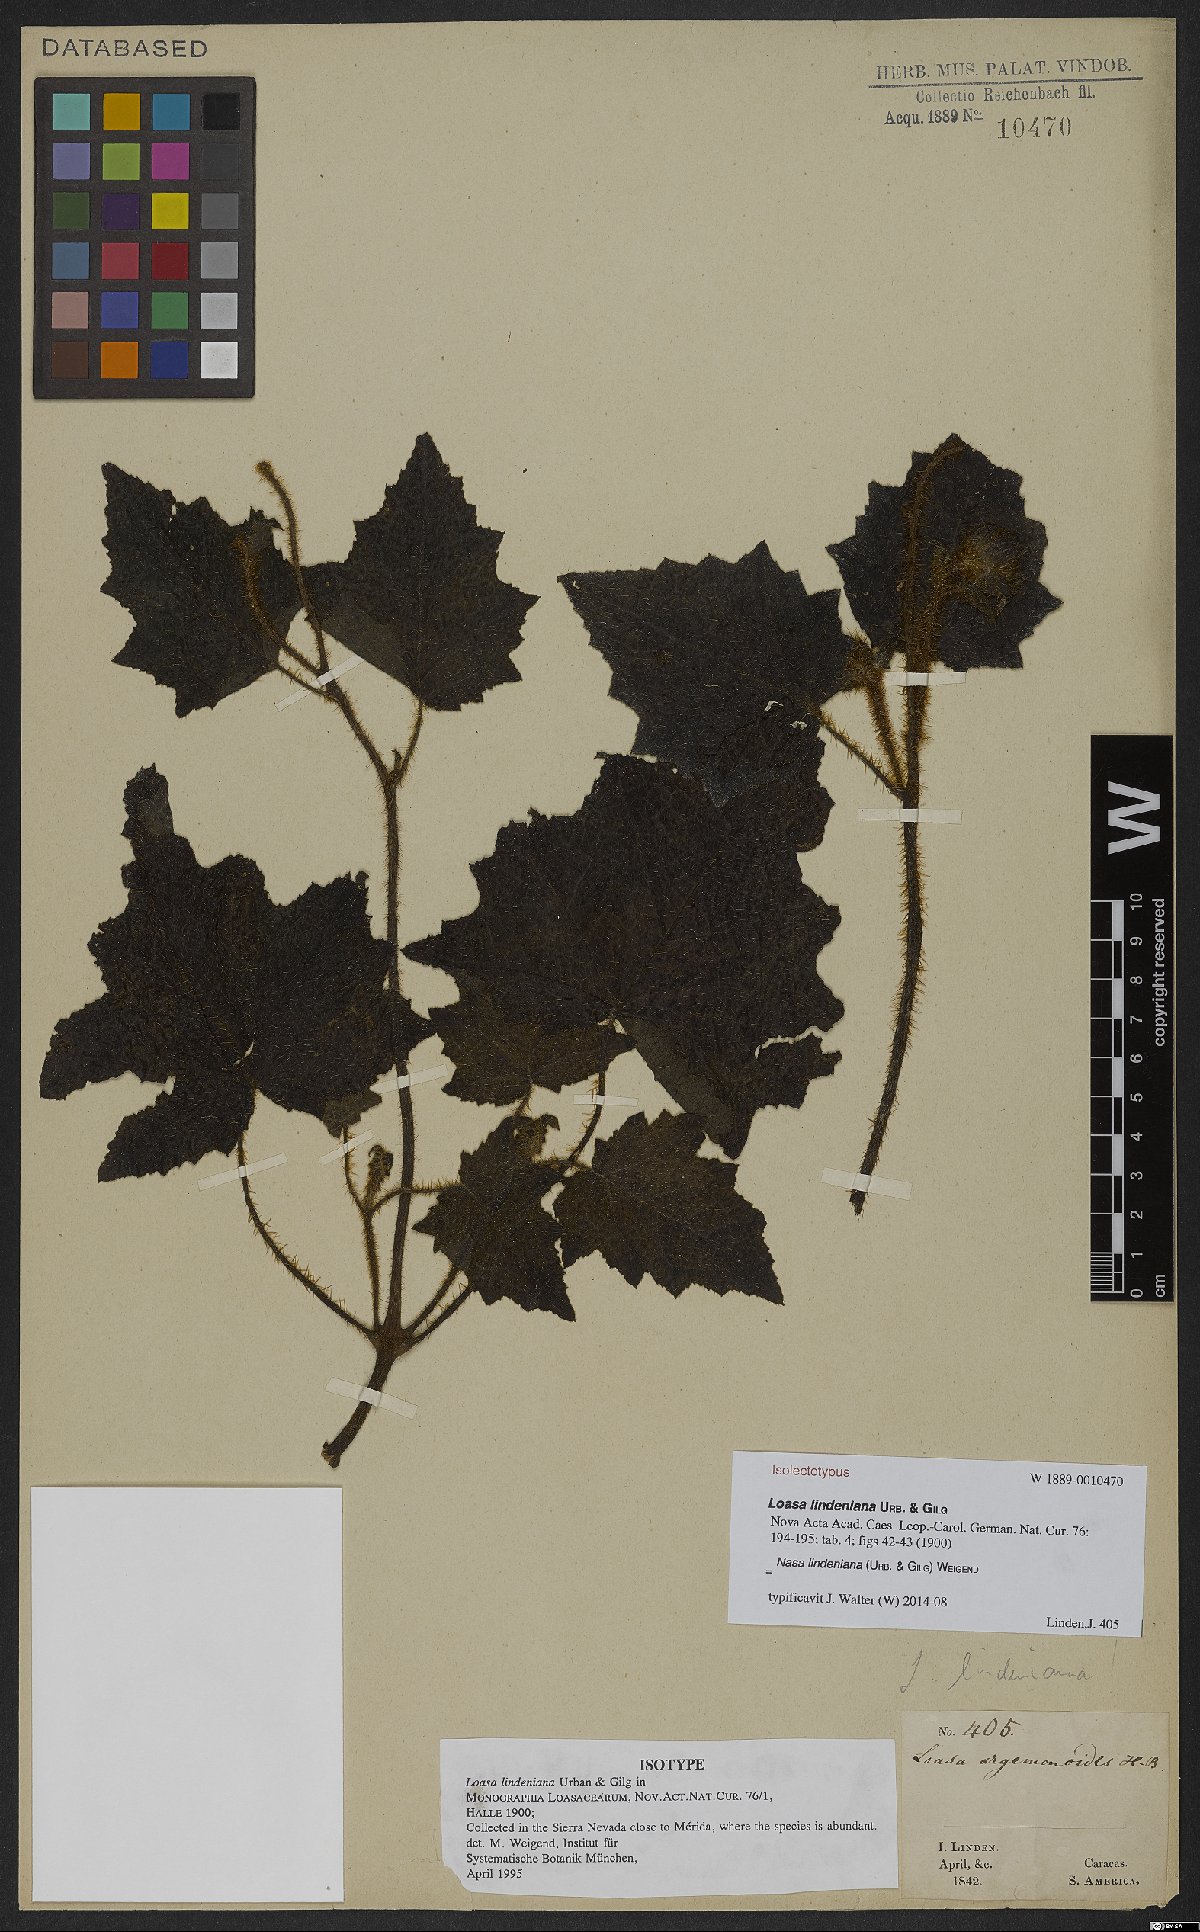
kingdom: Plantae
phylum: Tracheophyta
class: Magnoliopsida
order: Cornales
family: Loasaceae
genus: Nasa
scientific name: Nasa lindeniana
